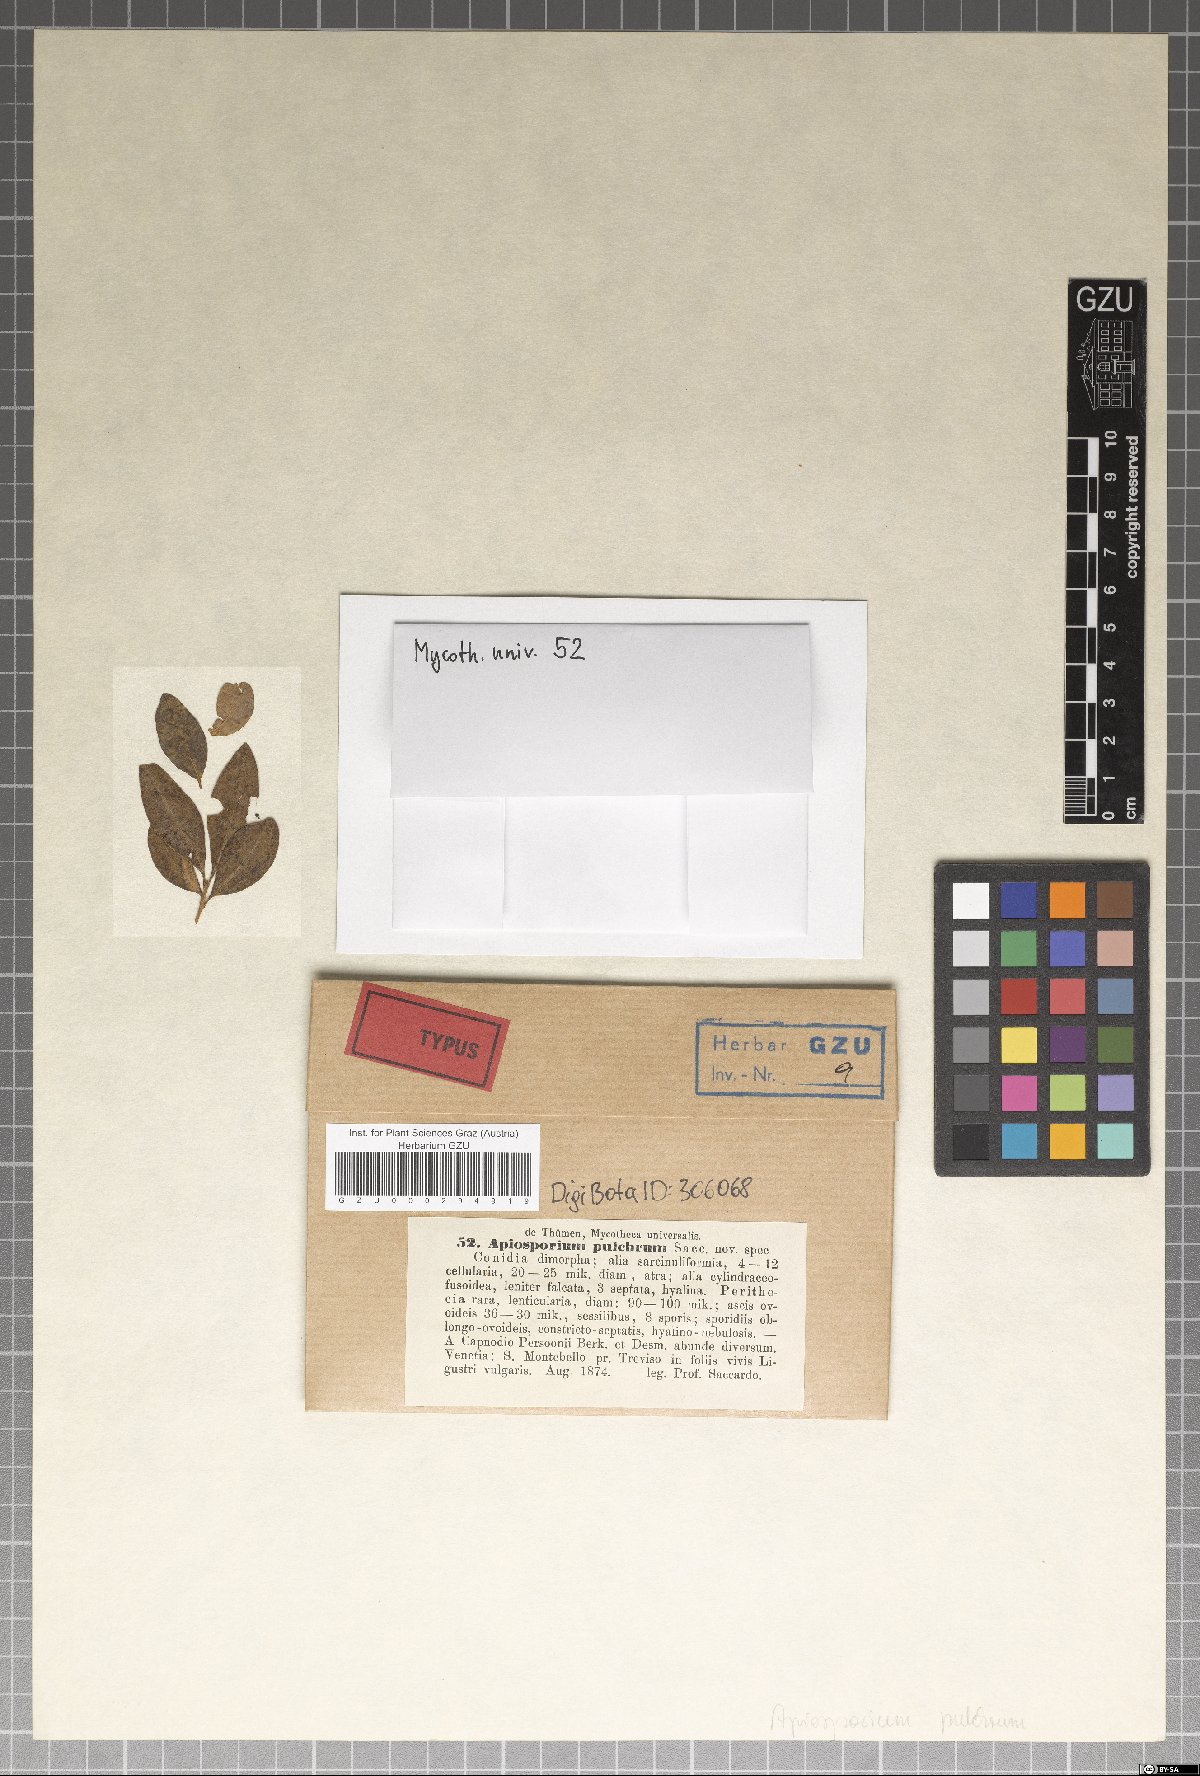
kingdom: Fungi
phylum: Ascomycota
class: Dothideomycetes
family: Englerulaceae
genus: Sarcinella
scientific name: Sarcinella pulchra
